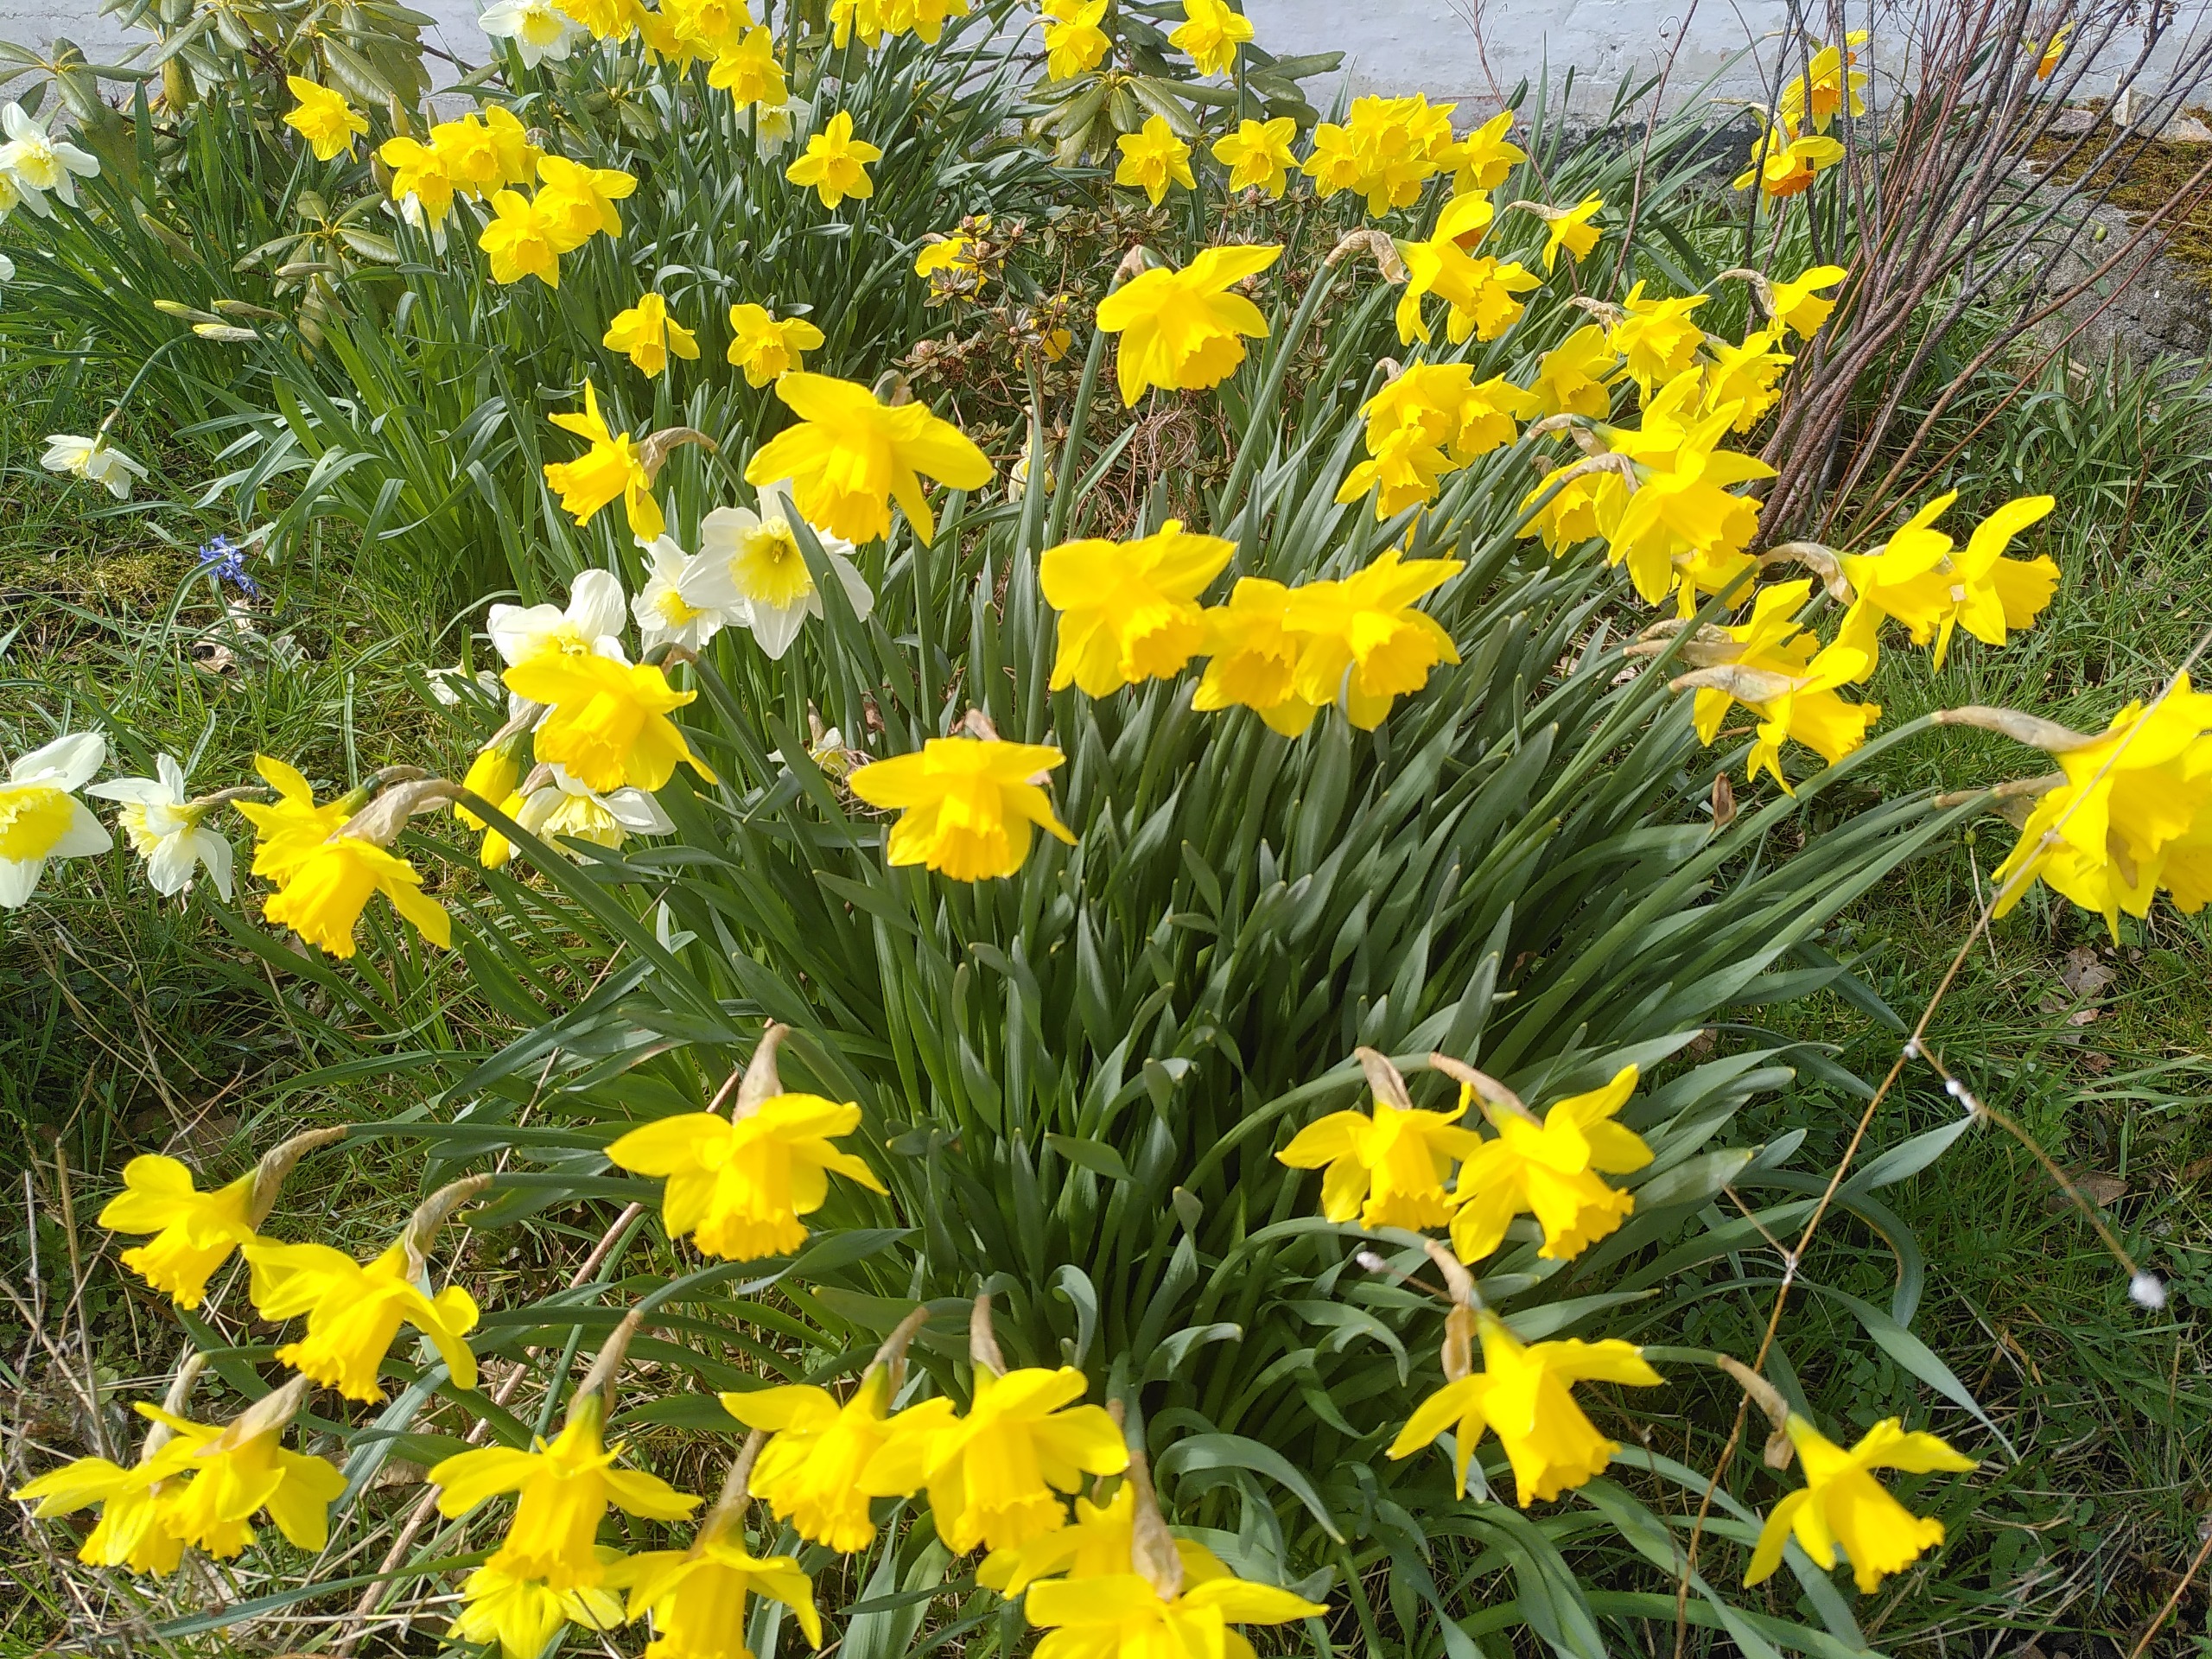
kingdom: Plantae
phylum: Tracheophyta
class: Liliopsida
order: Asparagales
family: Amaryllidaceae
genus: Narcissus
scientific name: Narcissus pseudonarcissus
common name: Påskelilje
